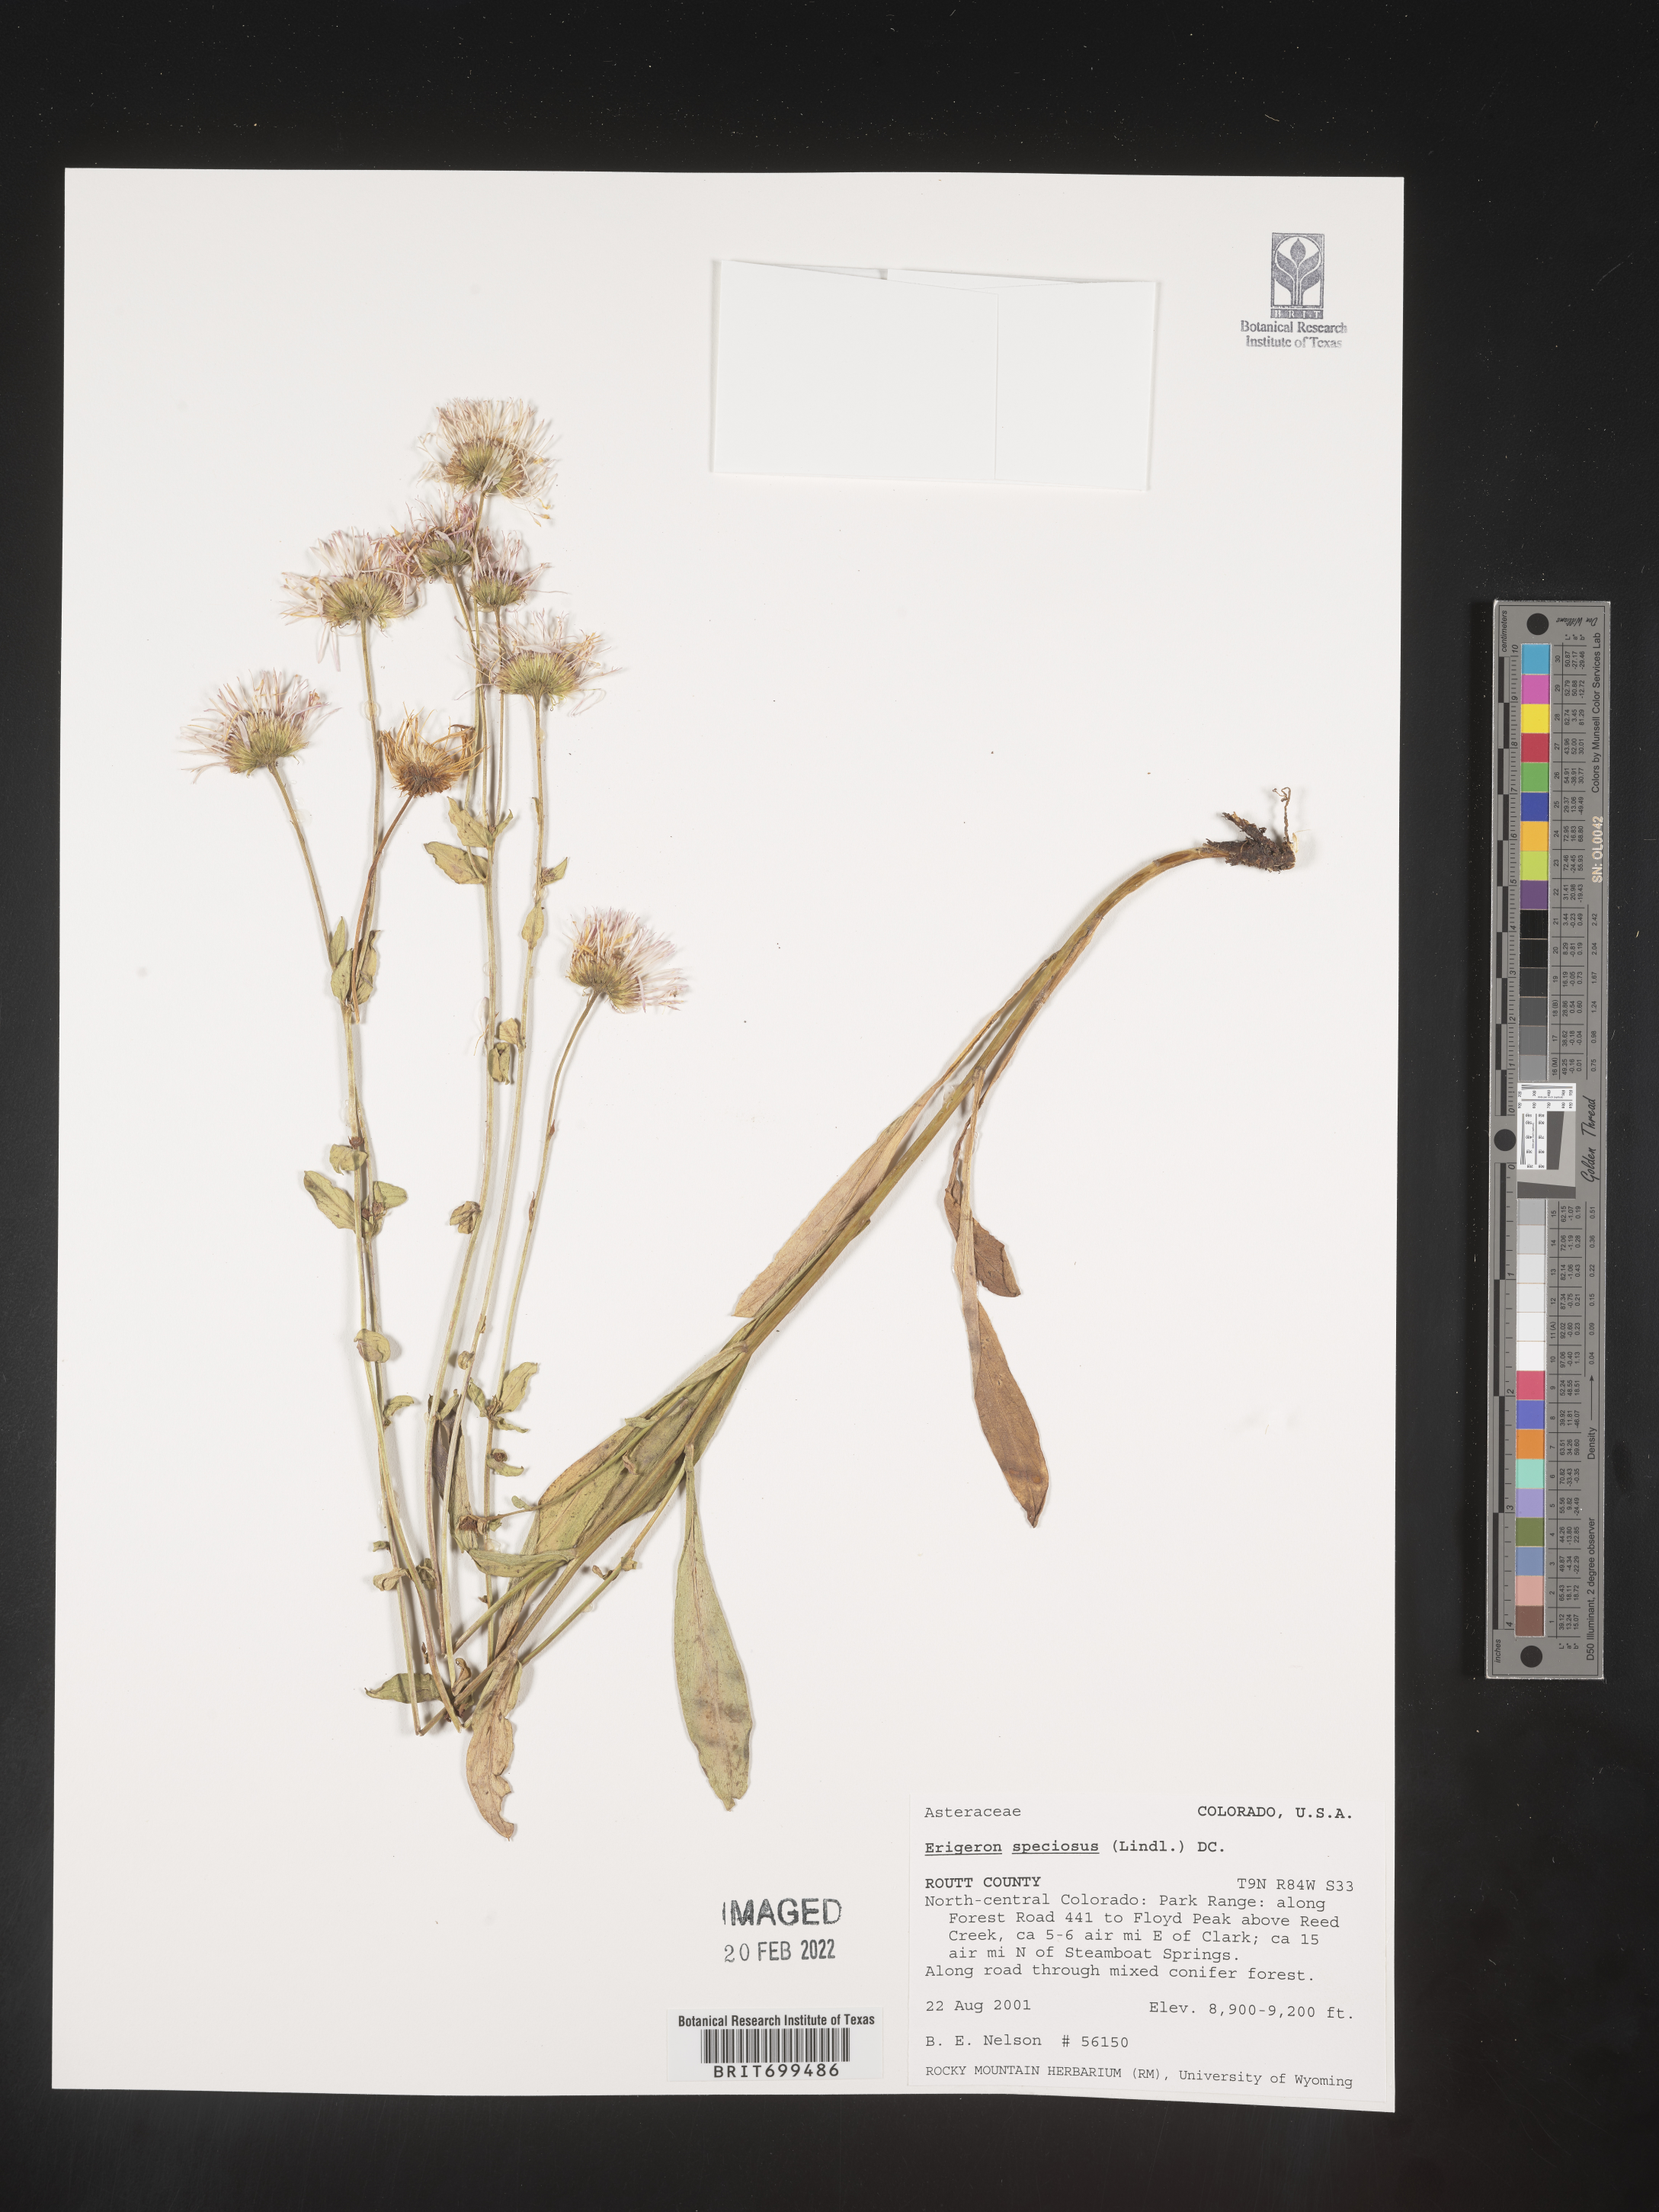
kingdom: Plantae
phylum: Tracheophyta
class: Magnoliopsida
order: Asterales
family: Asteraceae
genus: Erigeron
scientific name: Erigeron speciosus
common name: Aspen fleabane
